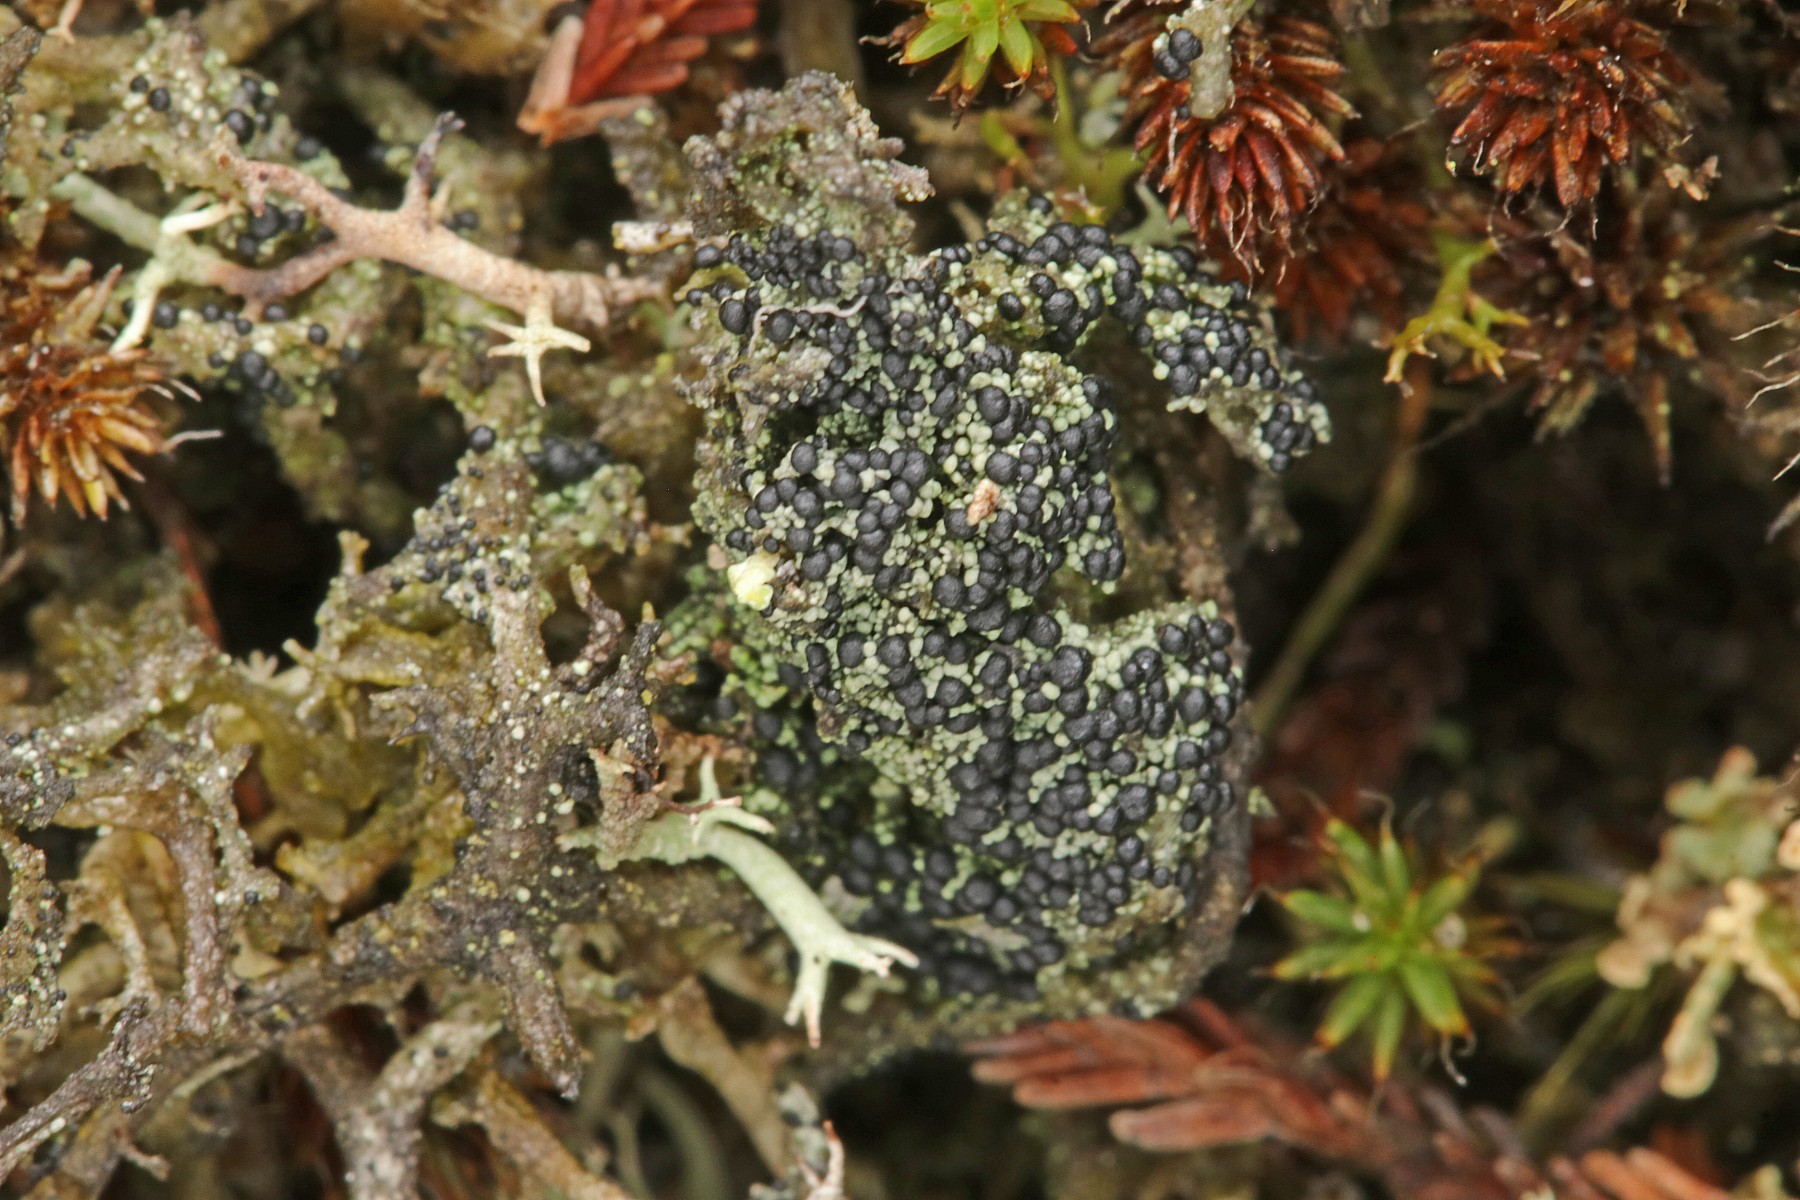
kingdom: Fungi
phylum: Ascomycota
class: Lecanoromycetes
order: Lecanorales
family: Byssolomataceae
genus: Micarea
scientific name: Micarea lignaria
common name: tørve-knaplav
